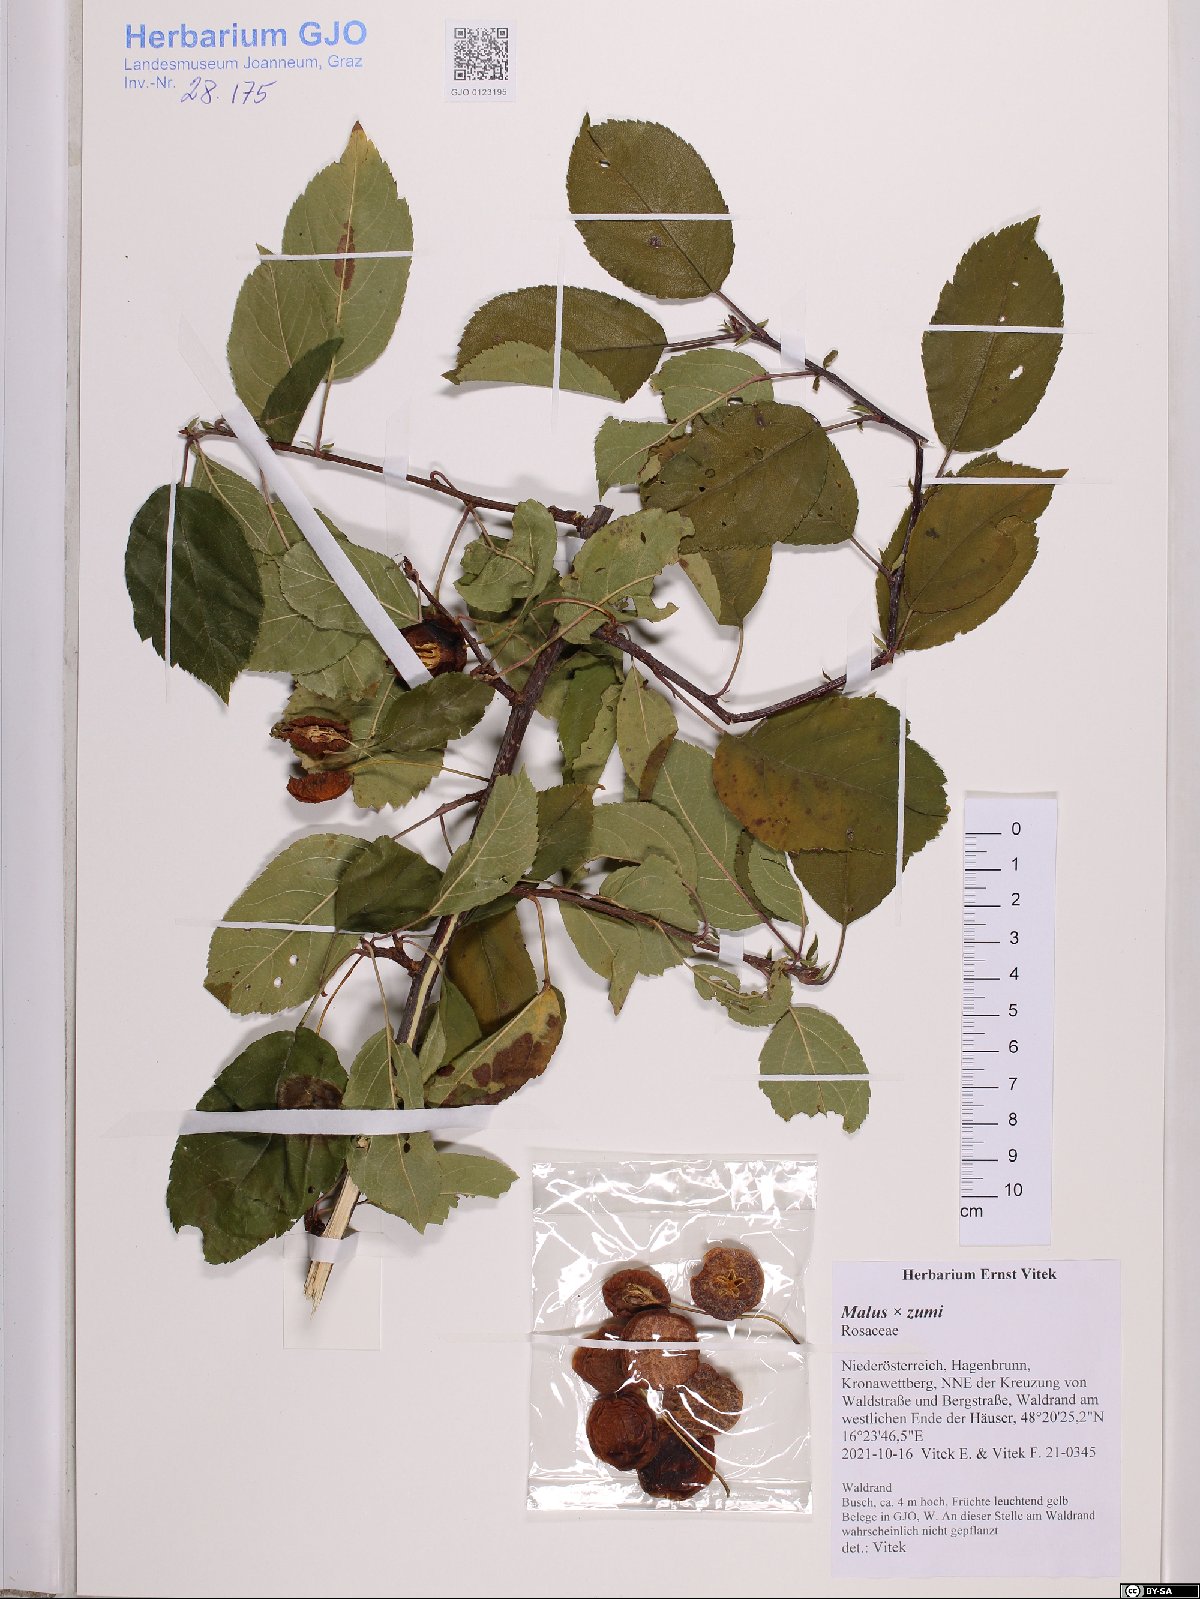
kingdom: Plantae
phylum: Tracheophyta
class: Magnoliopsida
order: Rosales
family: Rosaceae
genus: Malus
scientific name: Malus zumi
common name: O-zumi
